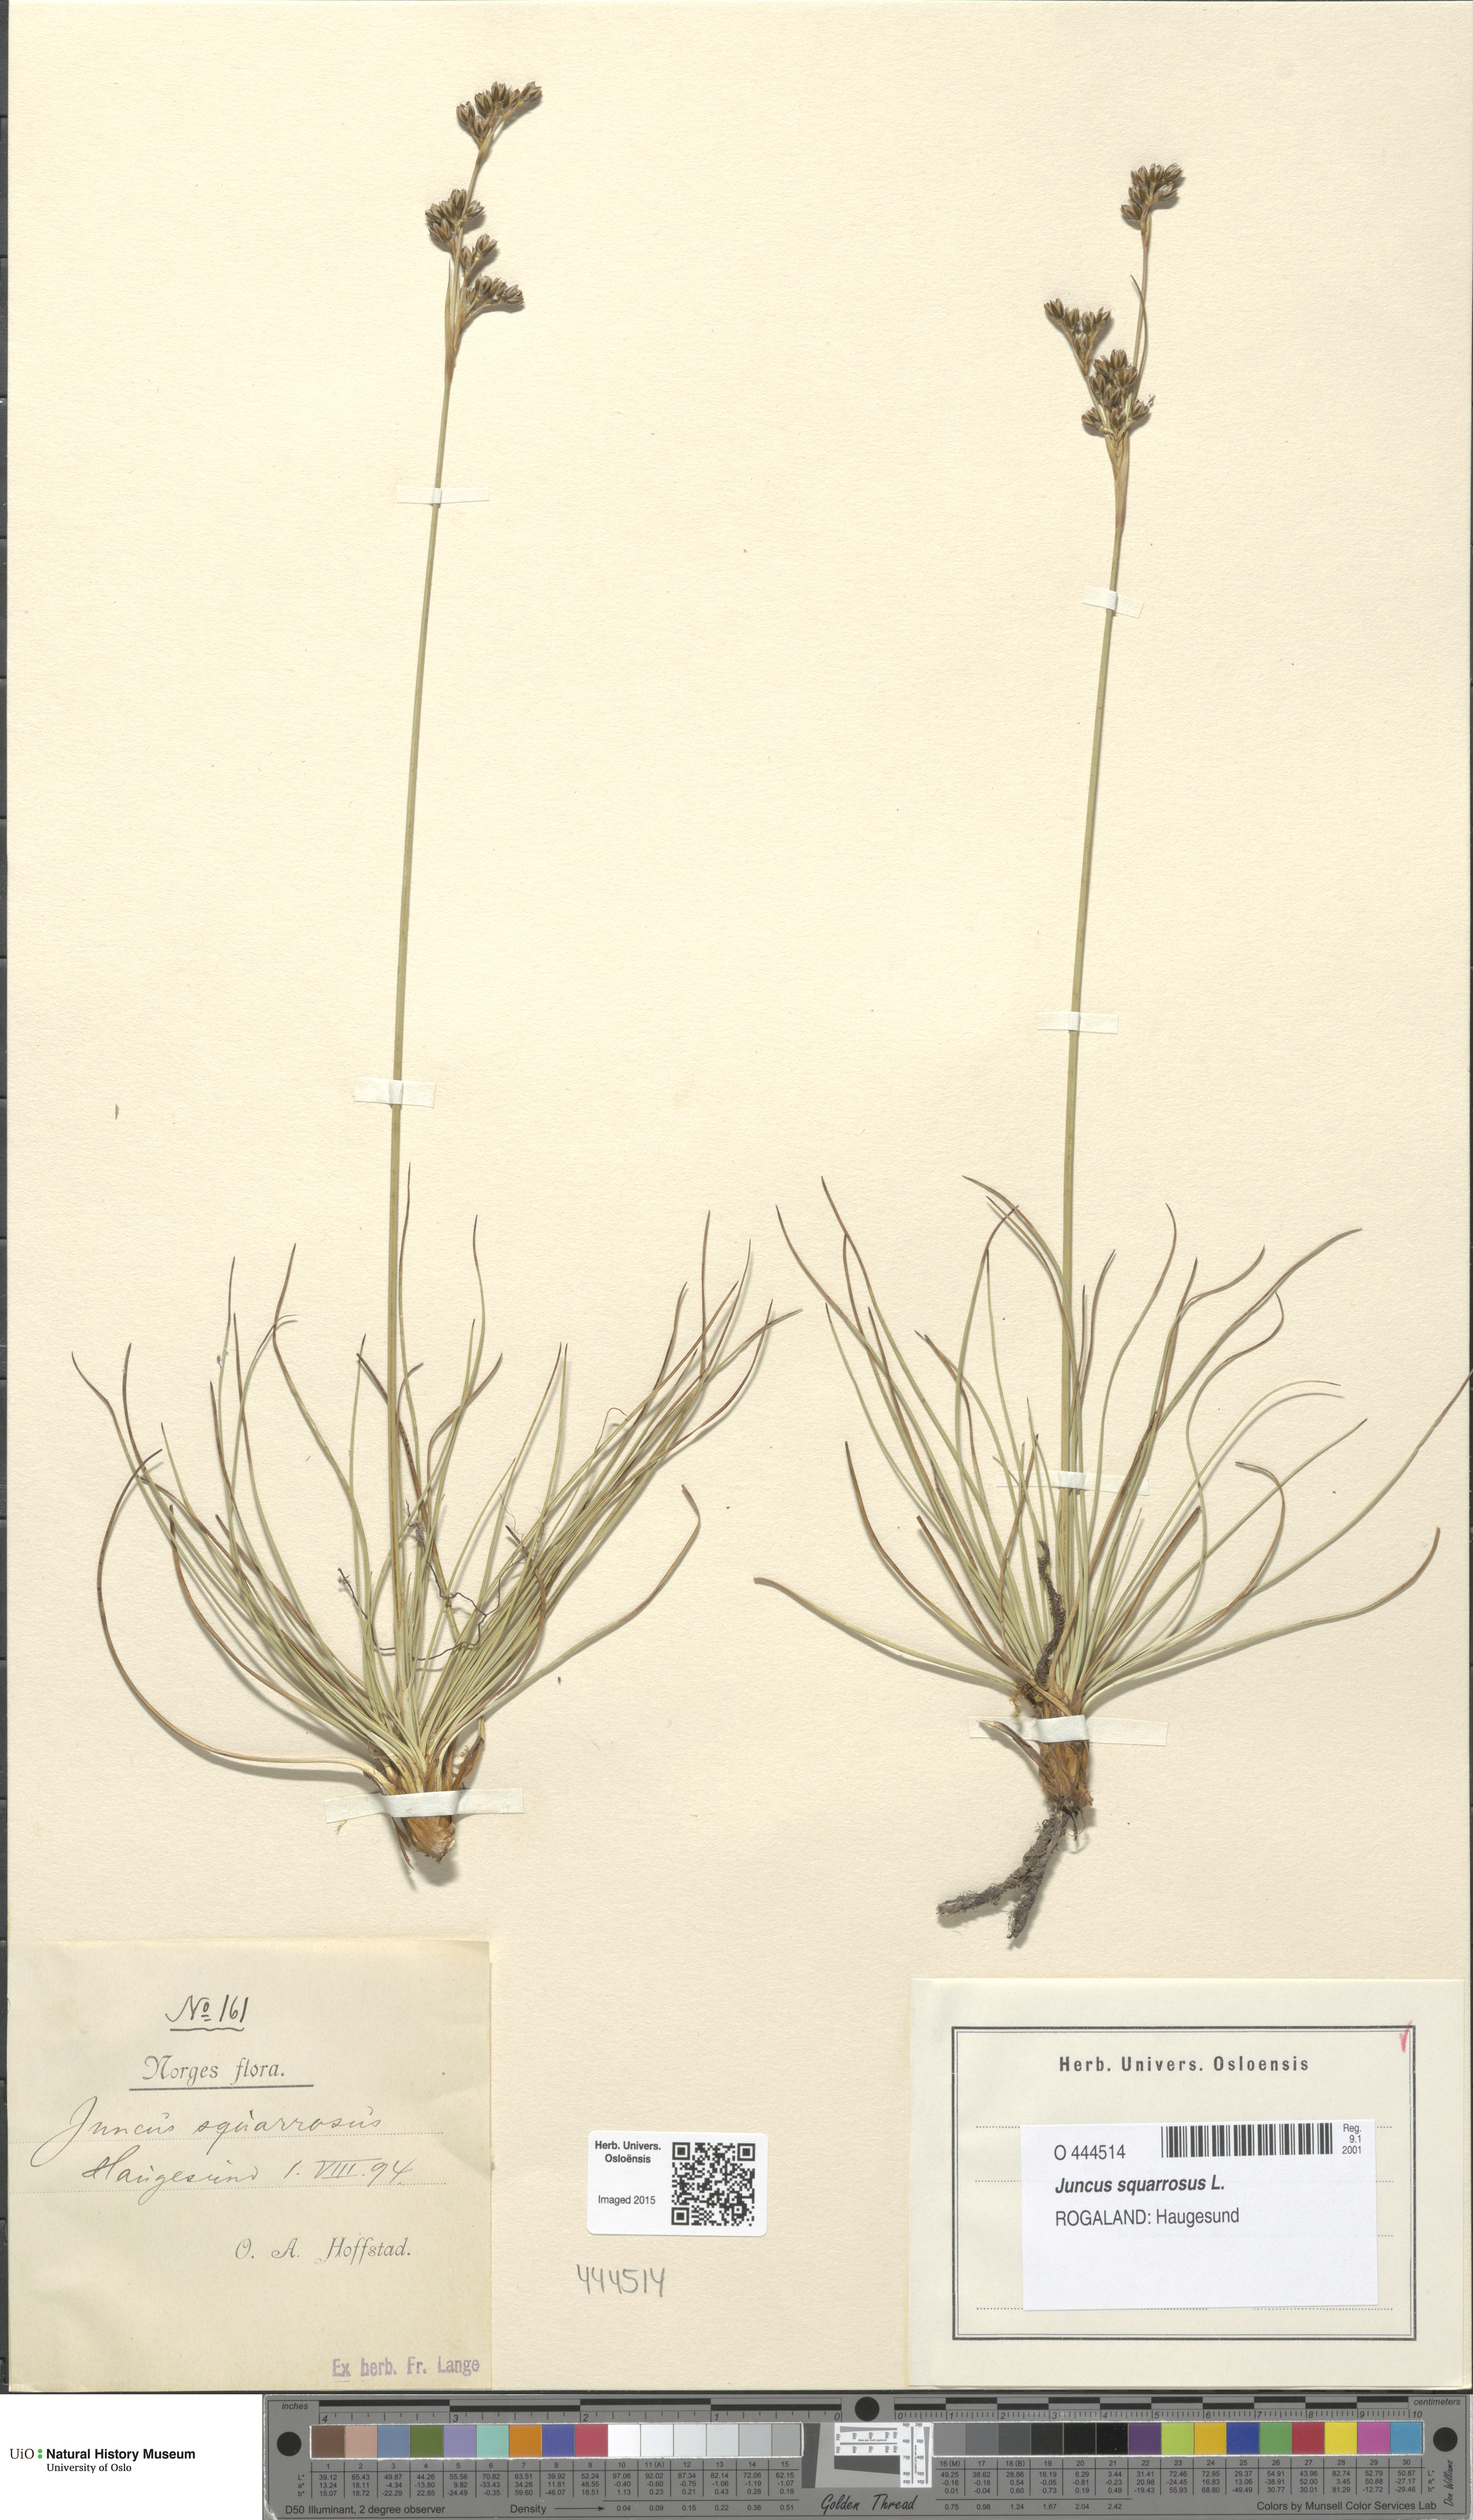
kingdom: Plantae
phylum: Tracheophyta
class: Liliopsida
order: Poales
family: Juncaceae
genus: Juncus
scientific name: Juncus squarrosus
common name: Heath rush
